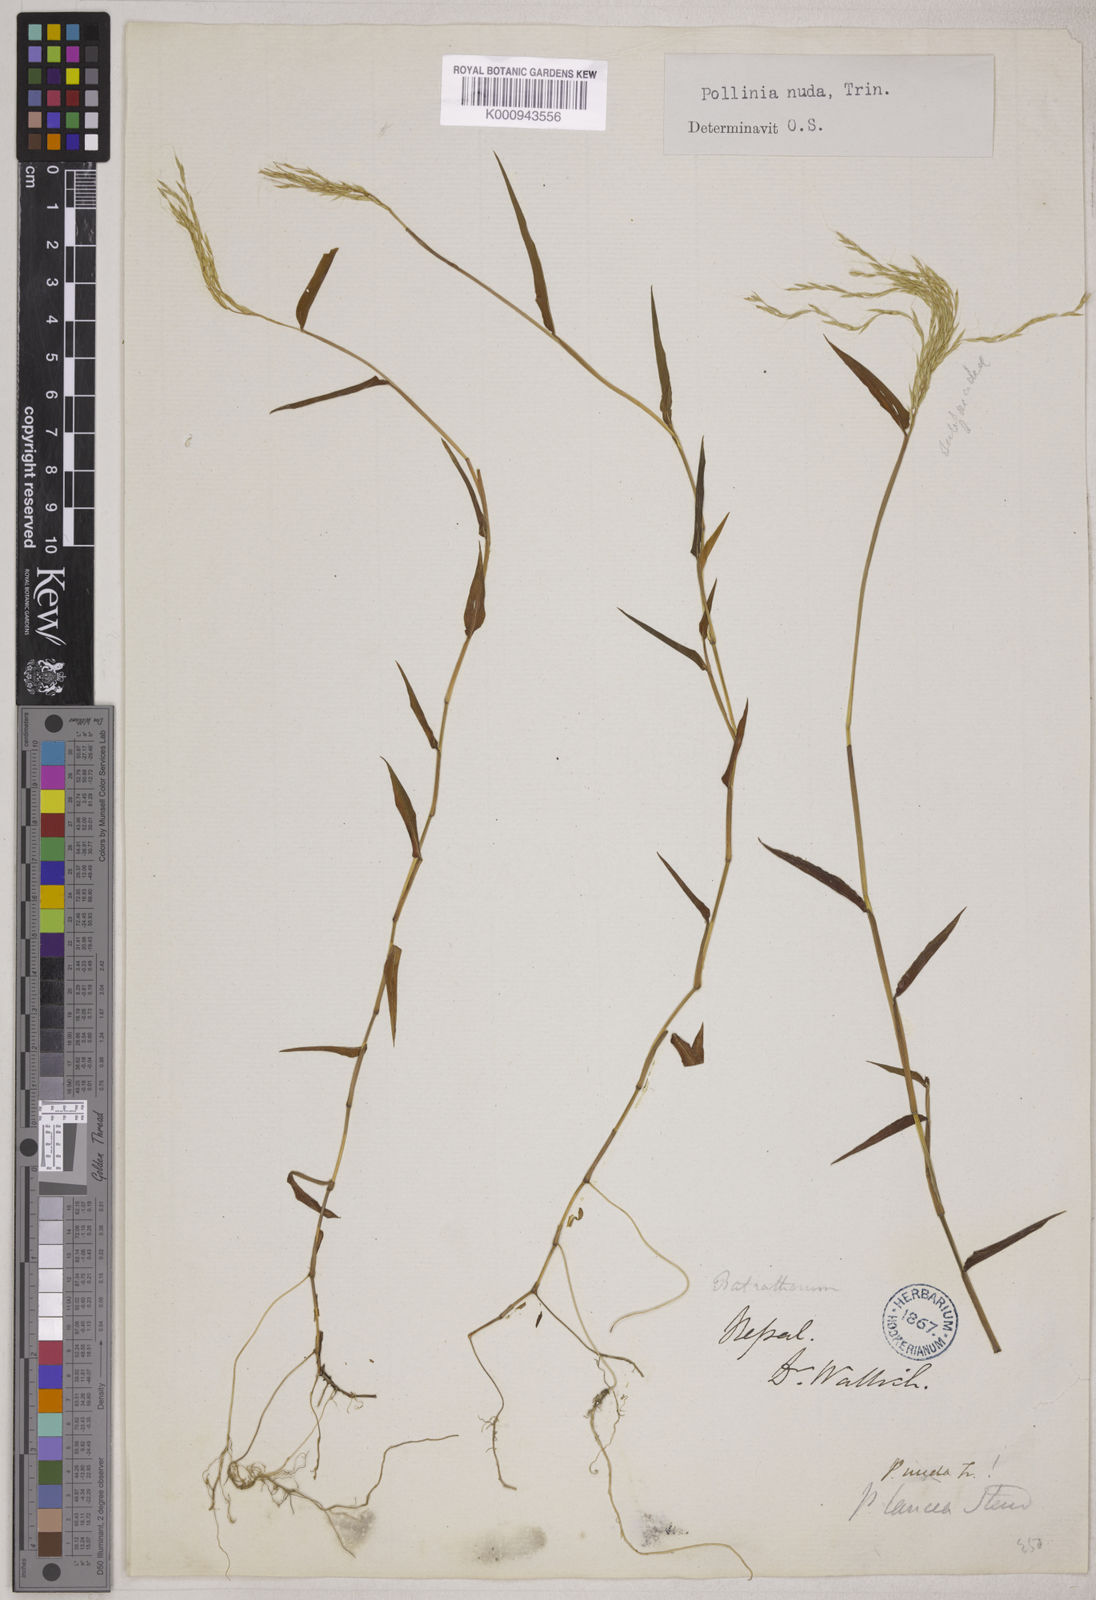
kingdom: Plantae
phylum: Tracheophyta
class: Liliopsida
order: Poales
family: Poaceae
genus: Microstegium
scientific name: Microstegium nudum
